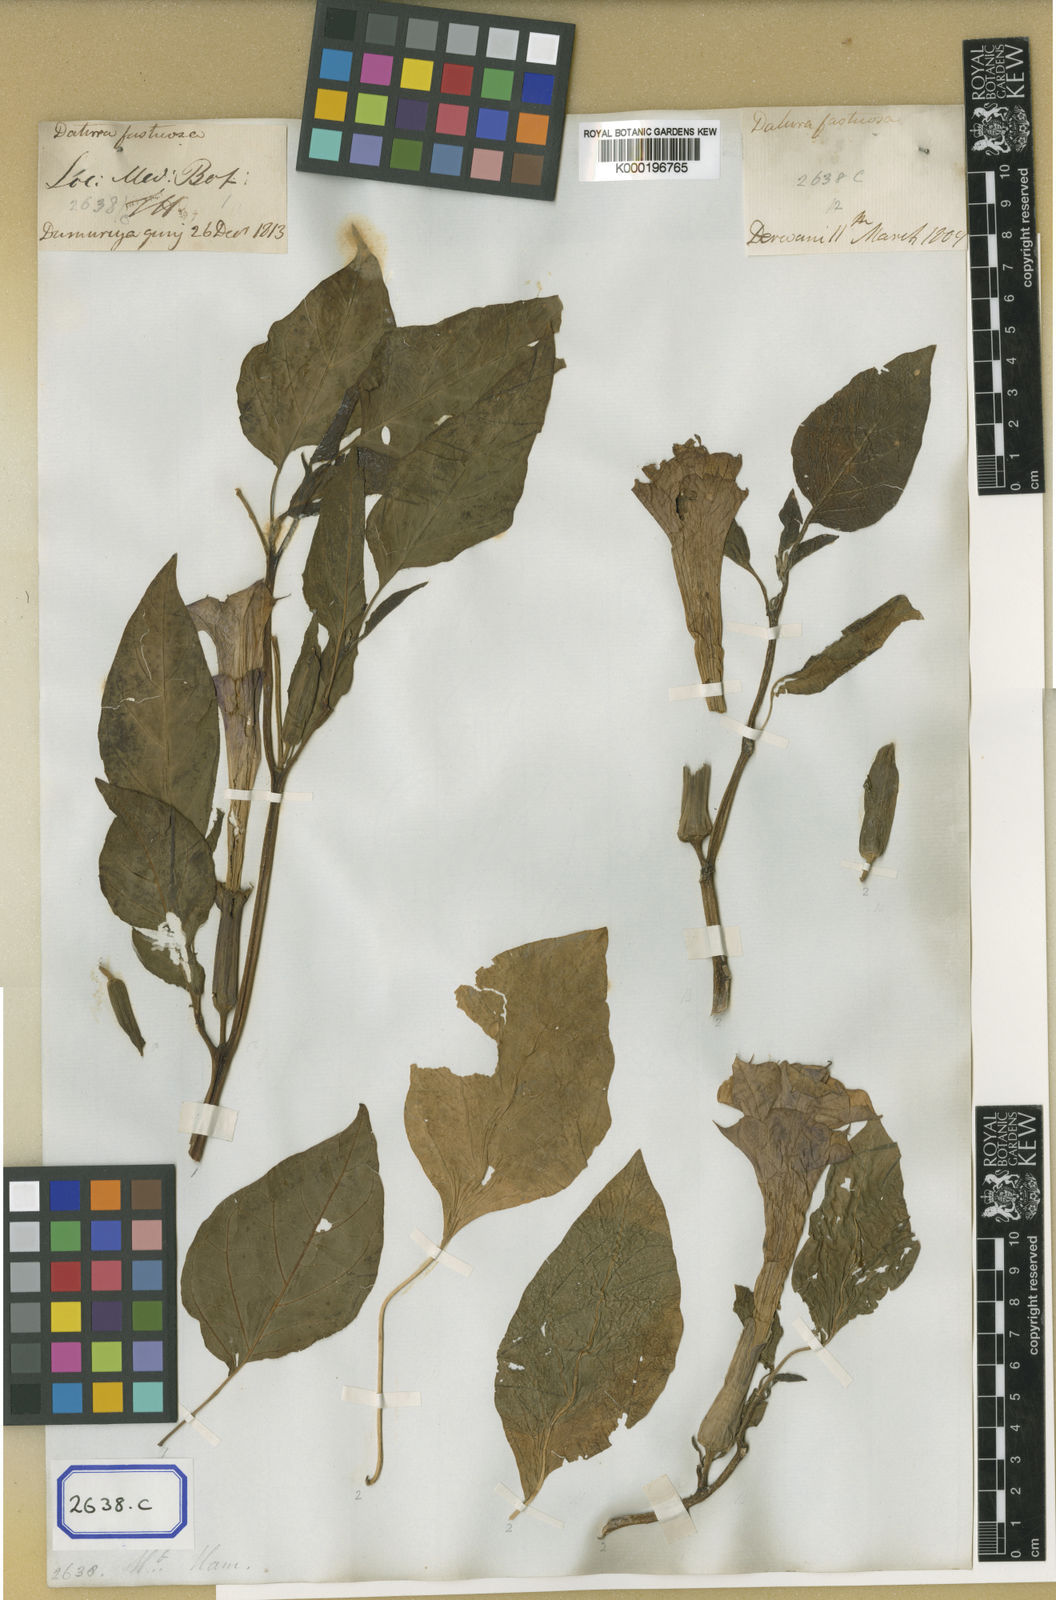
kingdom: Plantae
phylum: Tracheophyta
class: Magnoliopsida
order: Solanales
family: Solanaceae
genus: Datura
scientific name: Datura metel
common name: Jimsonweed
